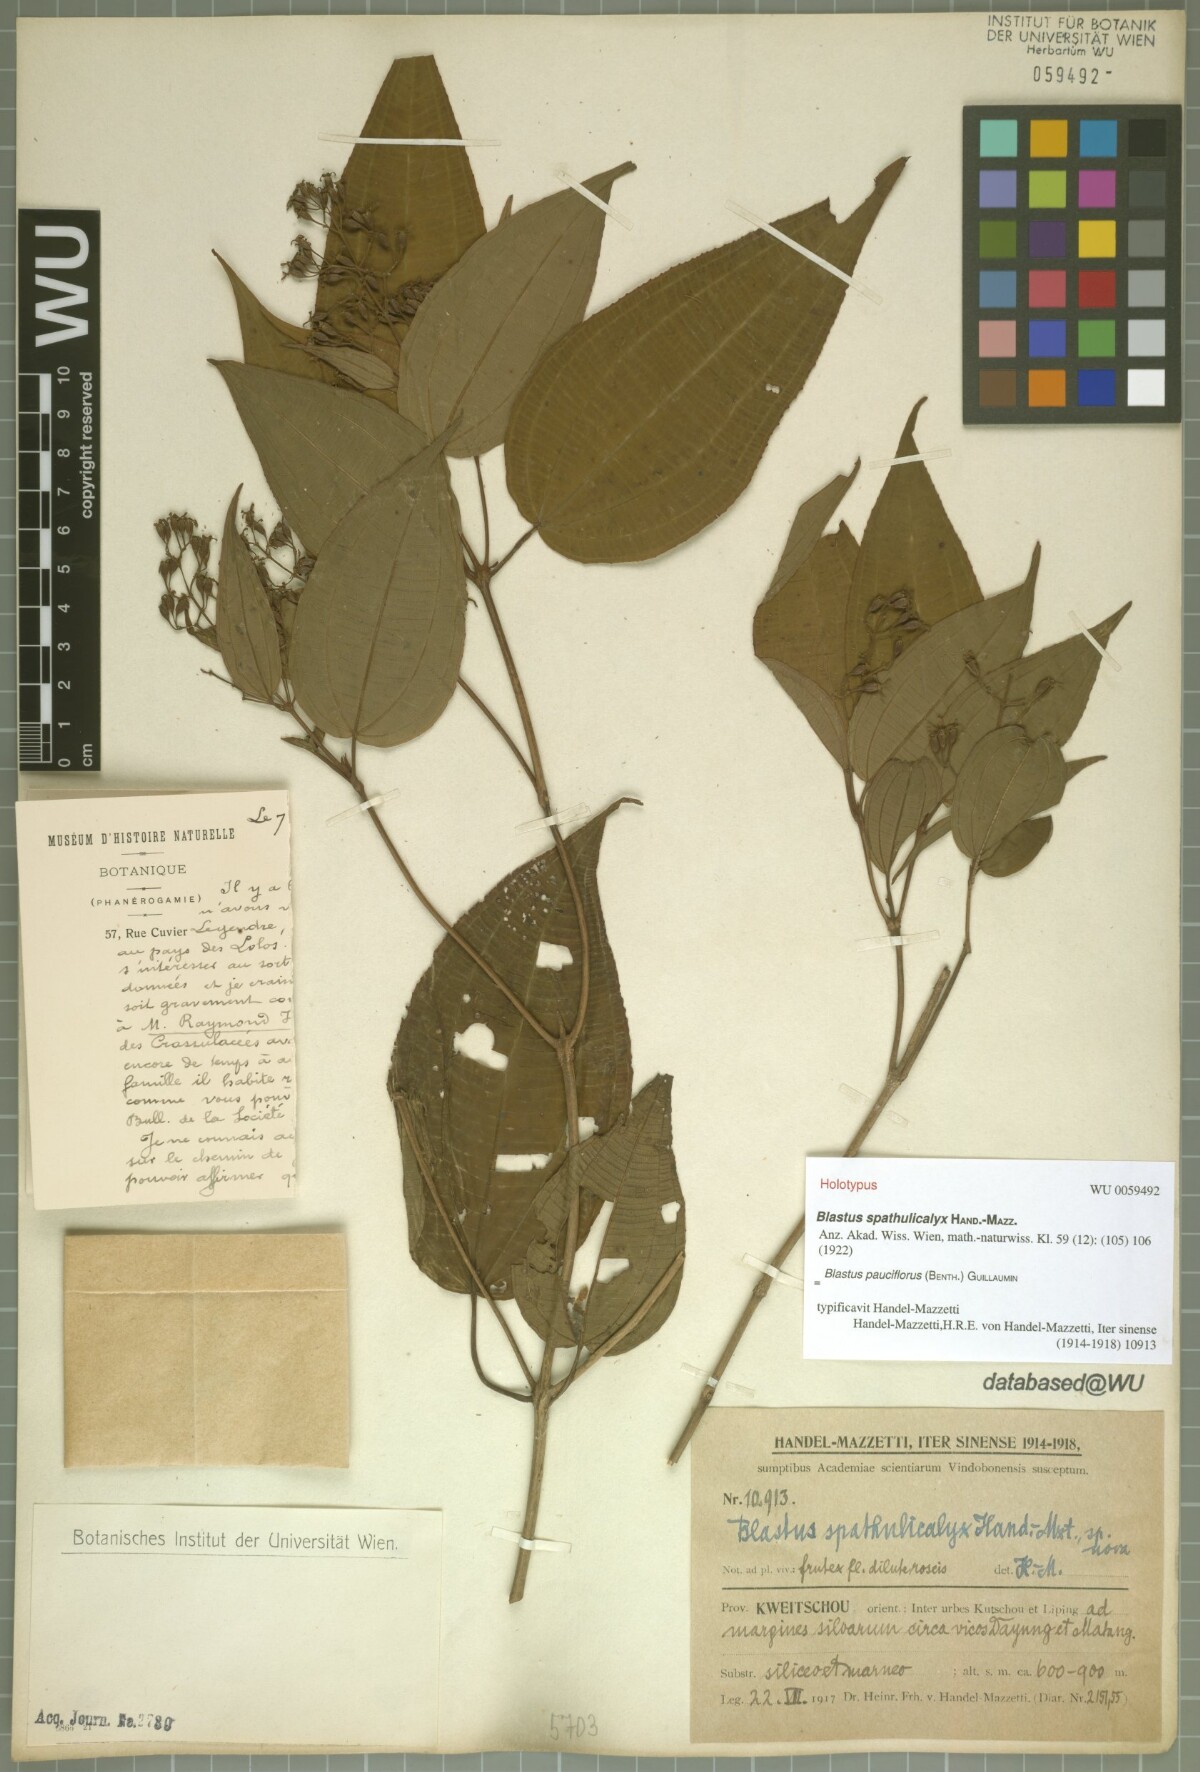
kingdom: Plantae
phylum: Tracheophyta
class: Magnoliopsida
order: Myrtales
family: Melastomataceae
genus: Blastus
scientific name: Blastus pauciflorus
